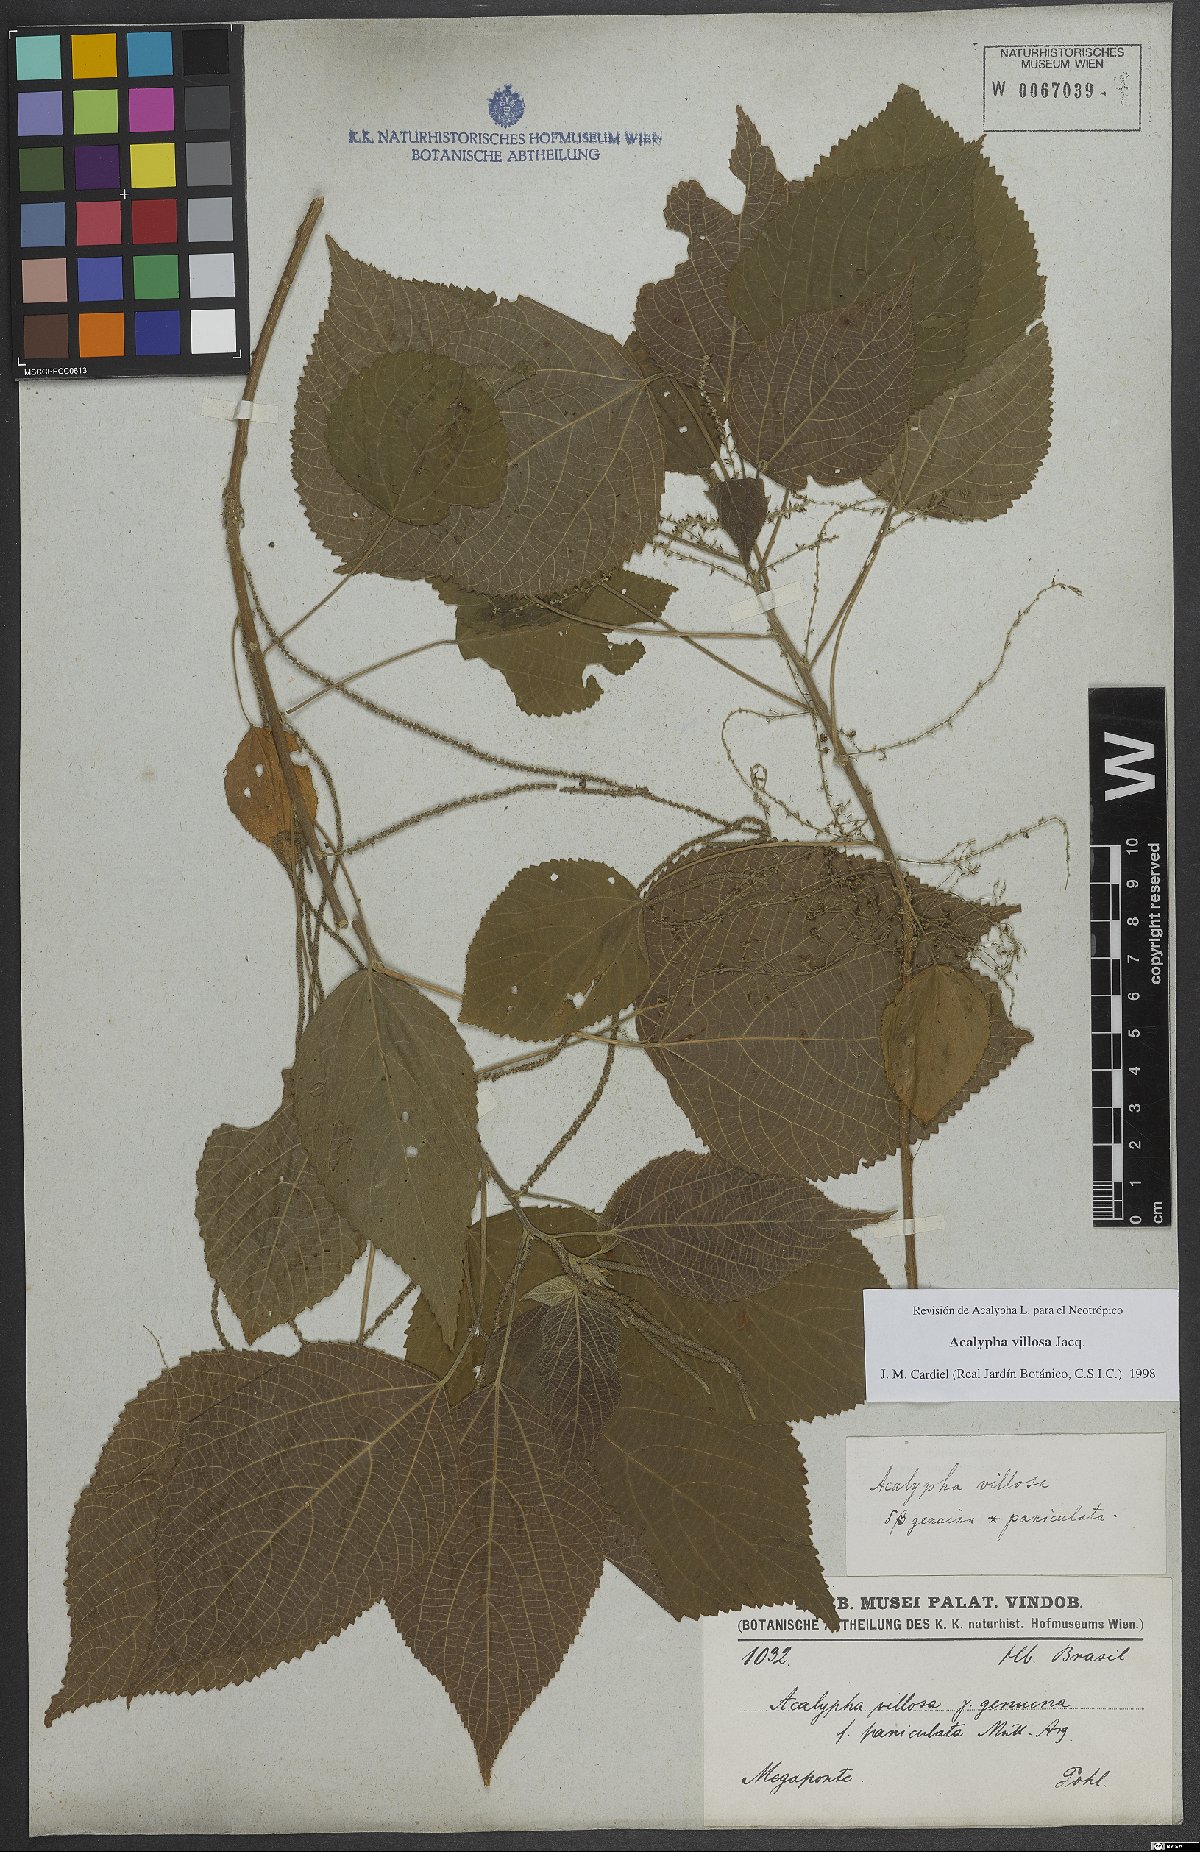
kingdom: Plantae
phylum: Tracheophyta
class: Magnoliopsida
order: Malpighiales
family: Euphorbiaceae
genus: Acalypha
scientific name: Acalypha villosa
